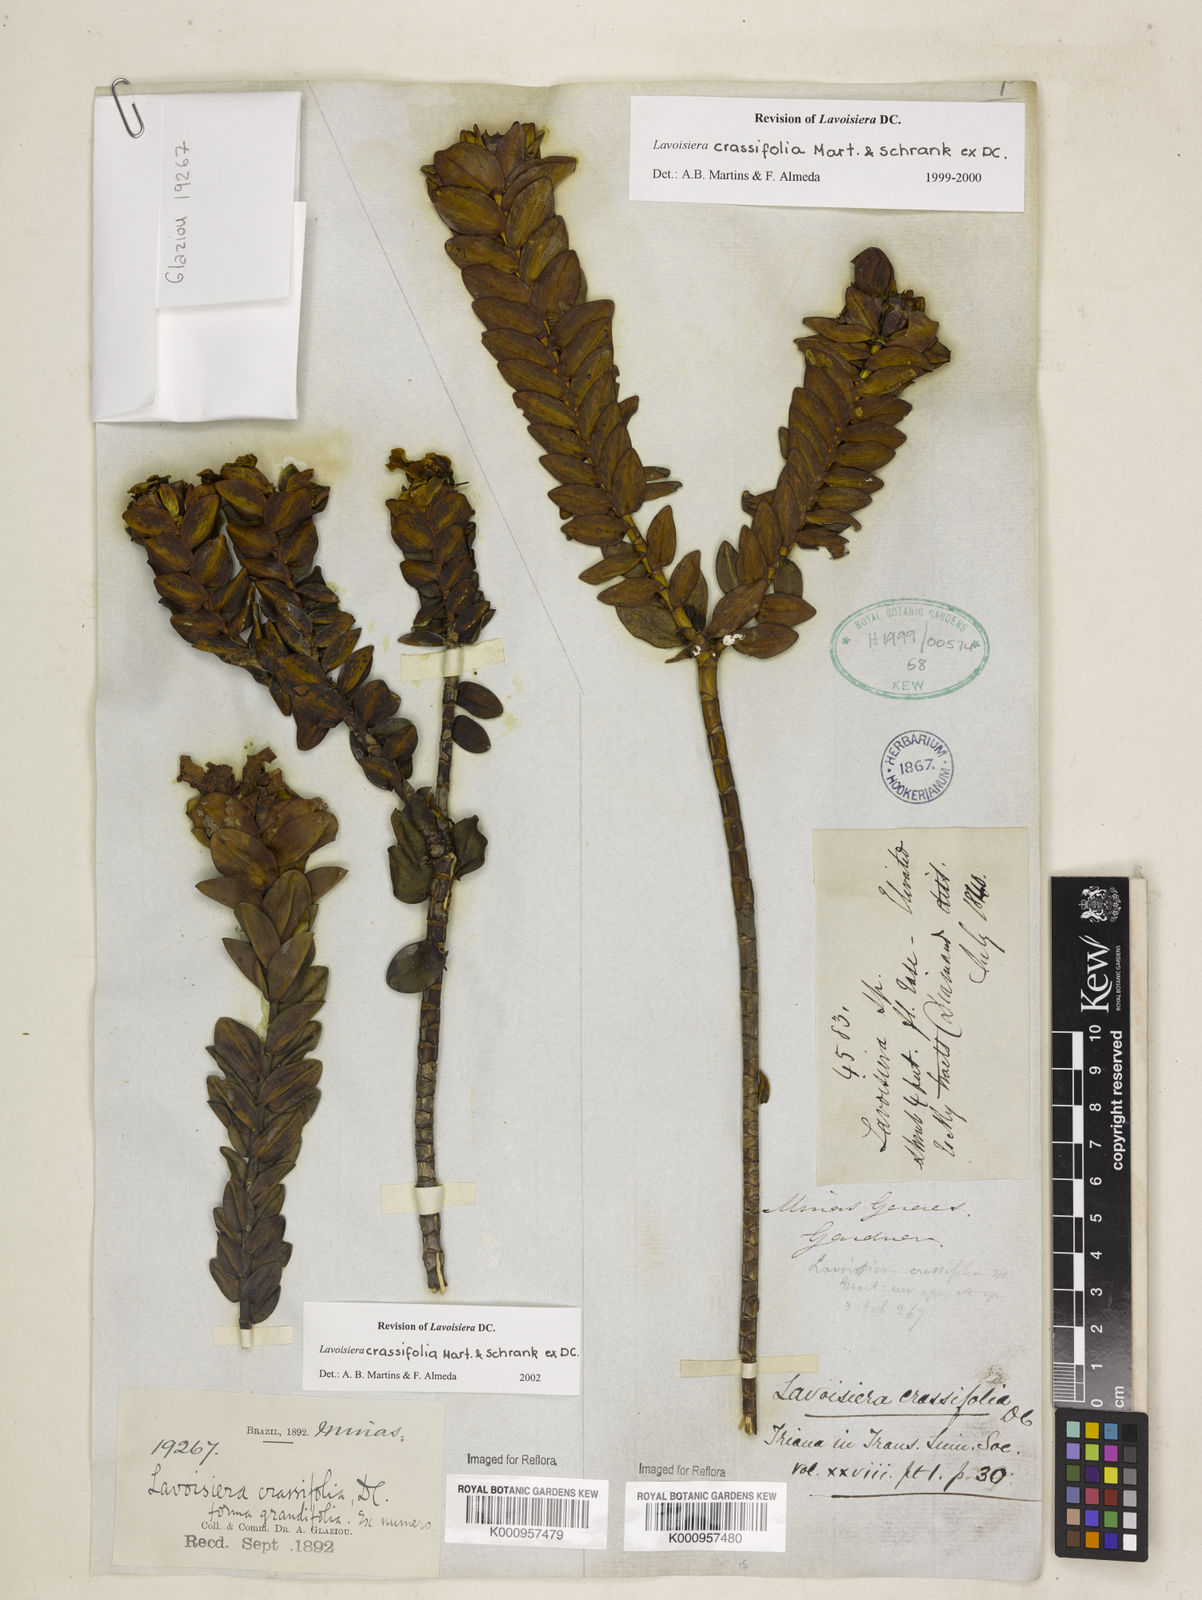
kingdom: Plantae
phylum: Tracheophyta
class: Magnoliopsida
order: Myrtales
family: Melastomataceae
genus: Microlicia
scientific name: Microlicia crassifolia
